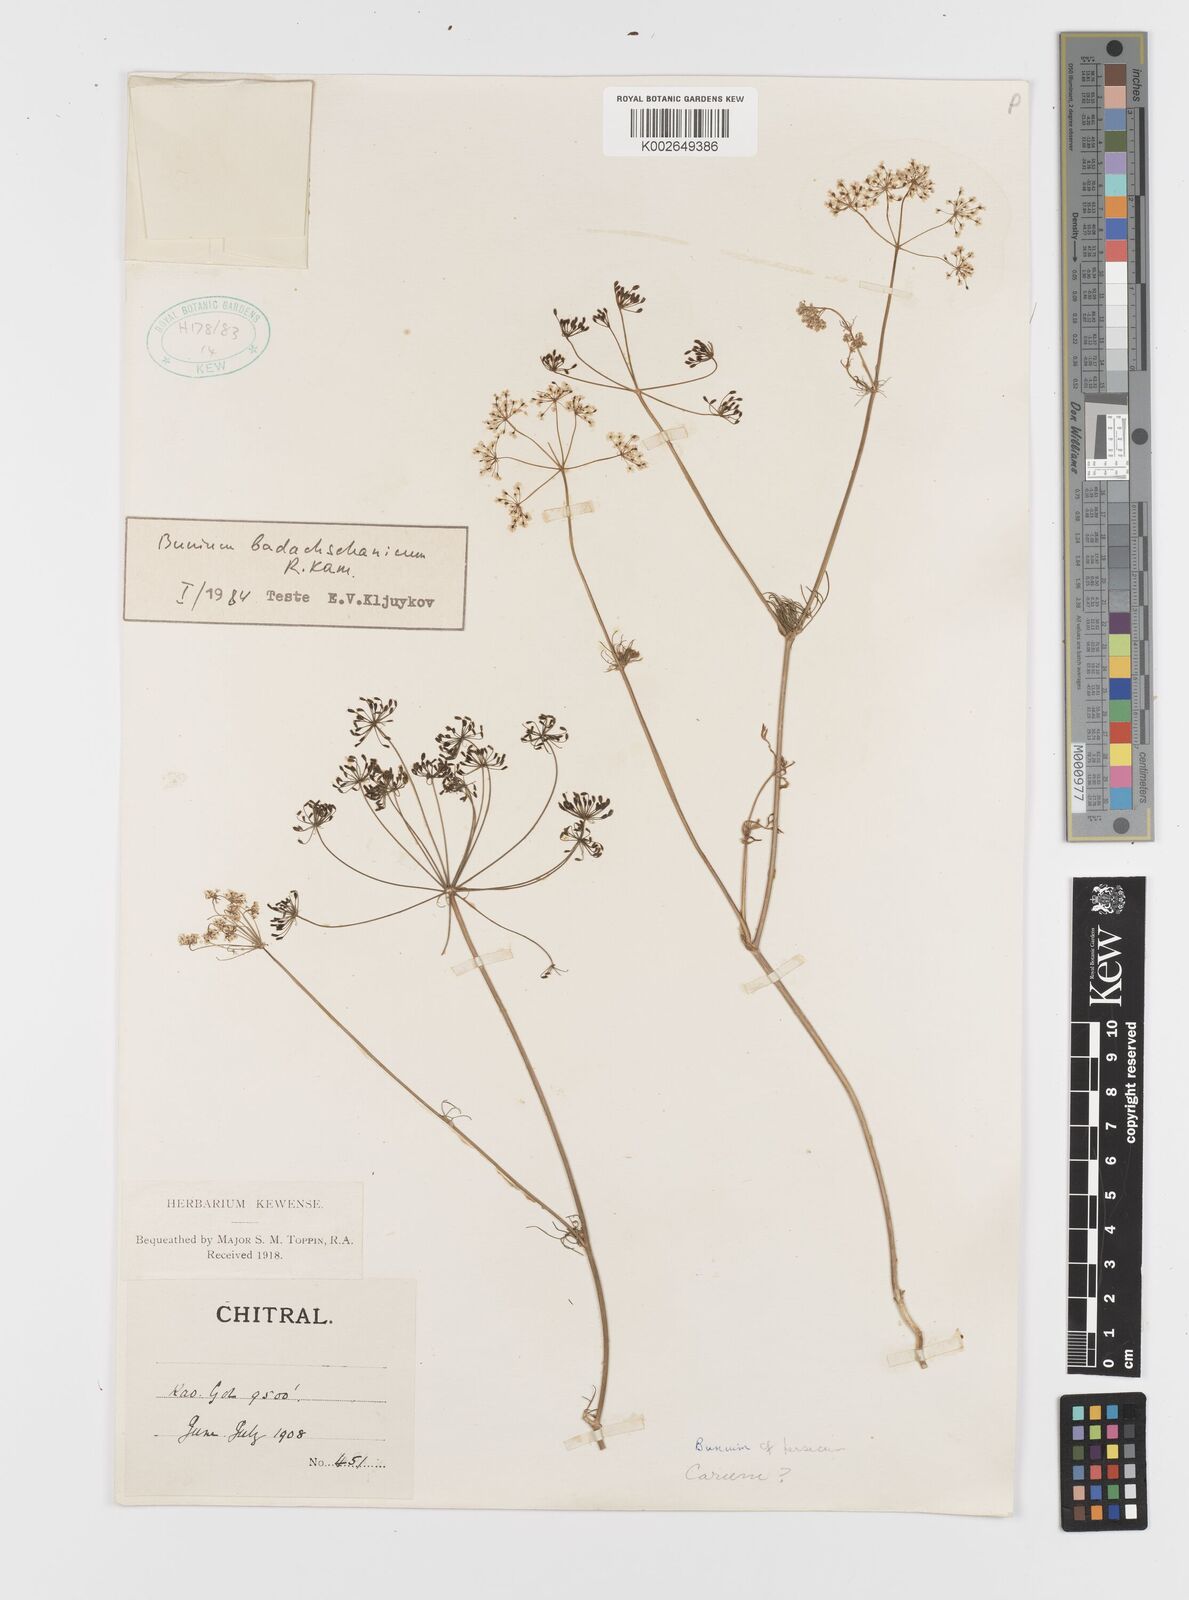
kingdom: Plantae
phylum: Tracheophyta
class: Magnoliopsida
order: Apiales
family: Apiaceae
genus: Elwendia
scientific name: Elwendia badachschanica
